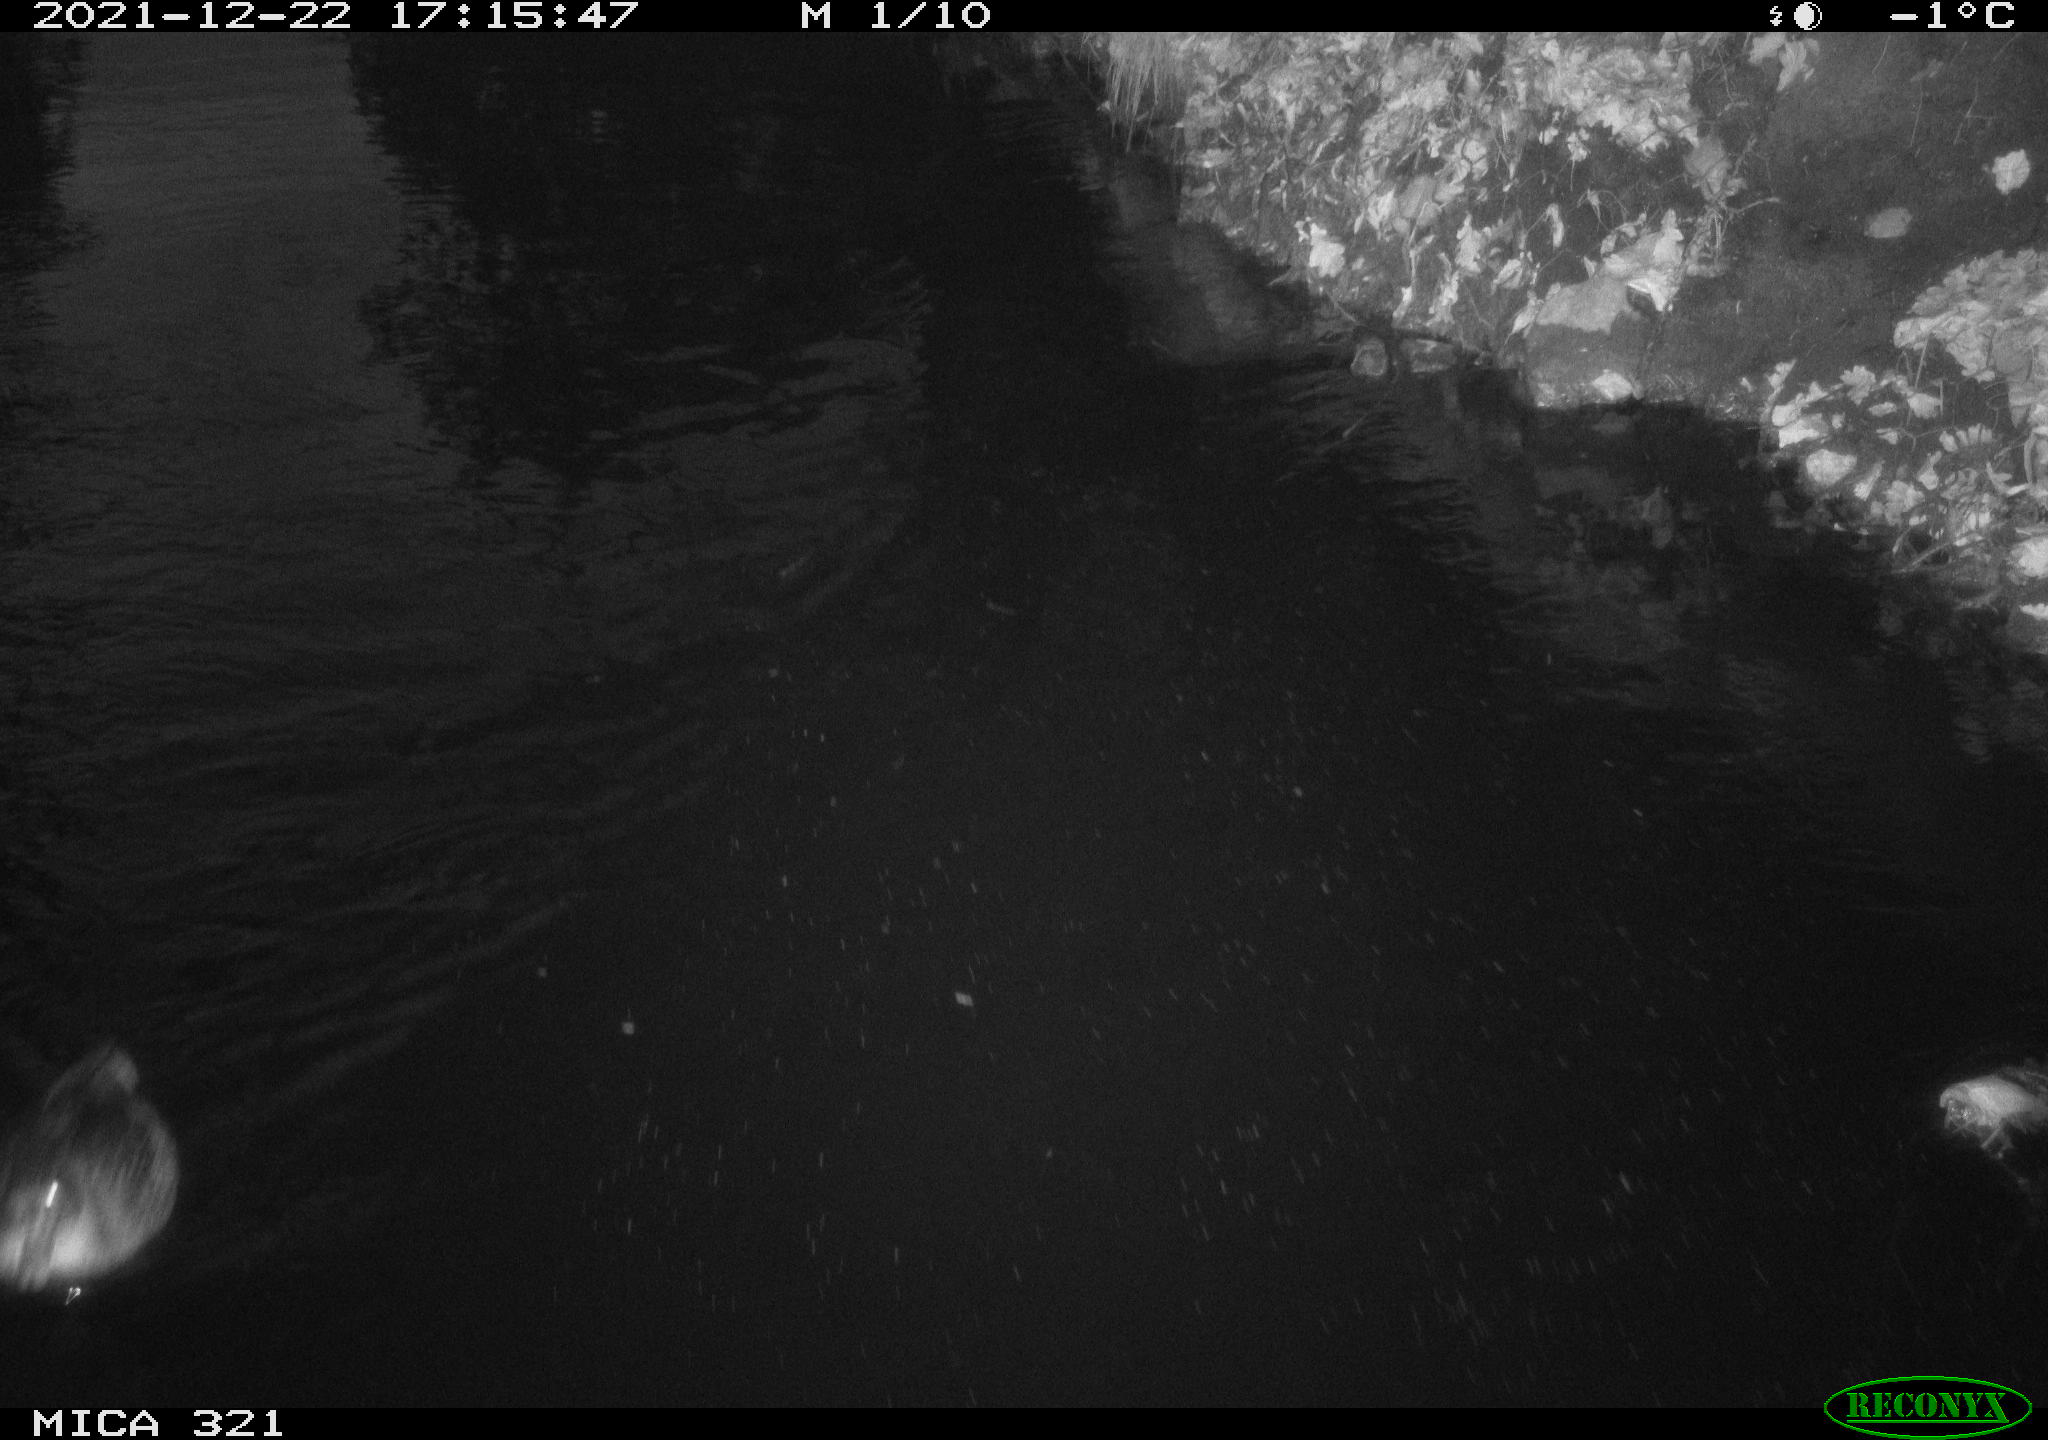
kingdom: Animalia
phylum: Chordata
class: Aves
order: Anseriformes
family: Anatidae
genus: Anas
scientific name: Anas platyrhynchos
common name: Mallard
